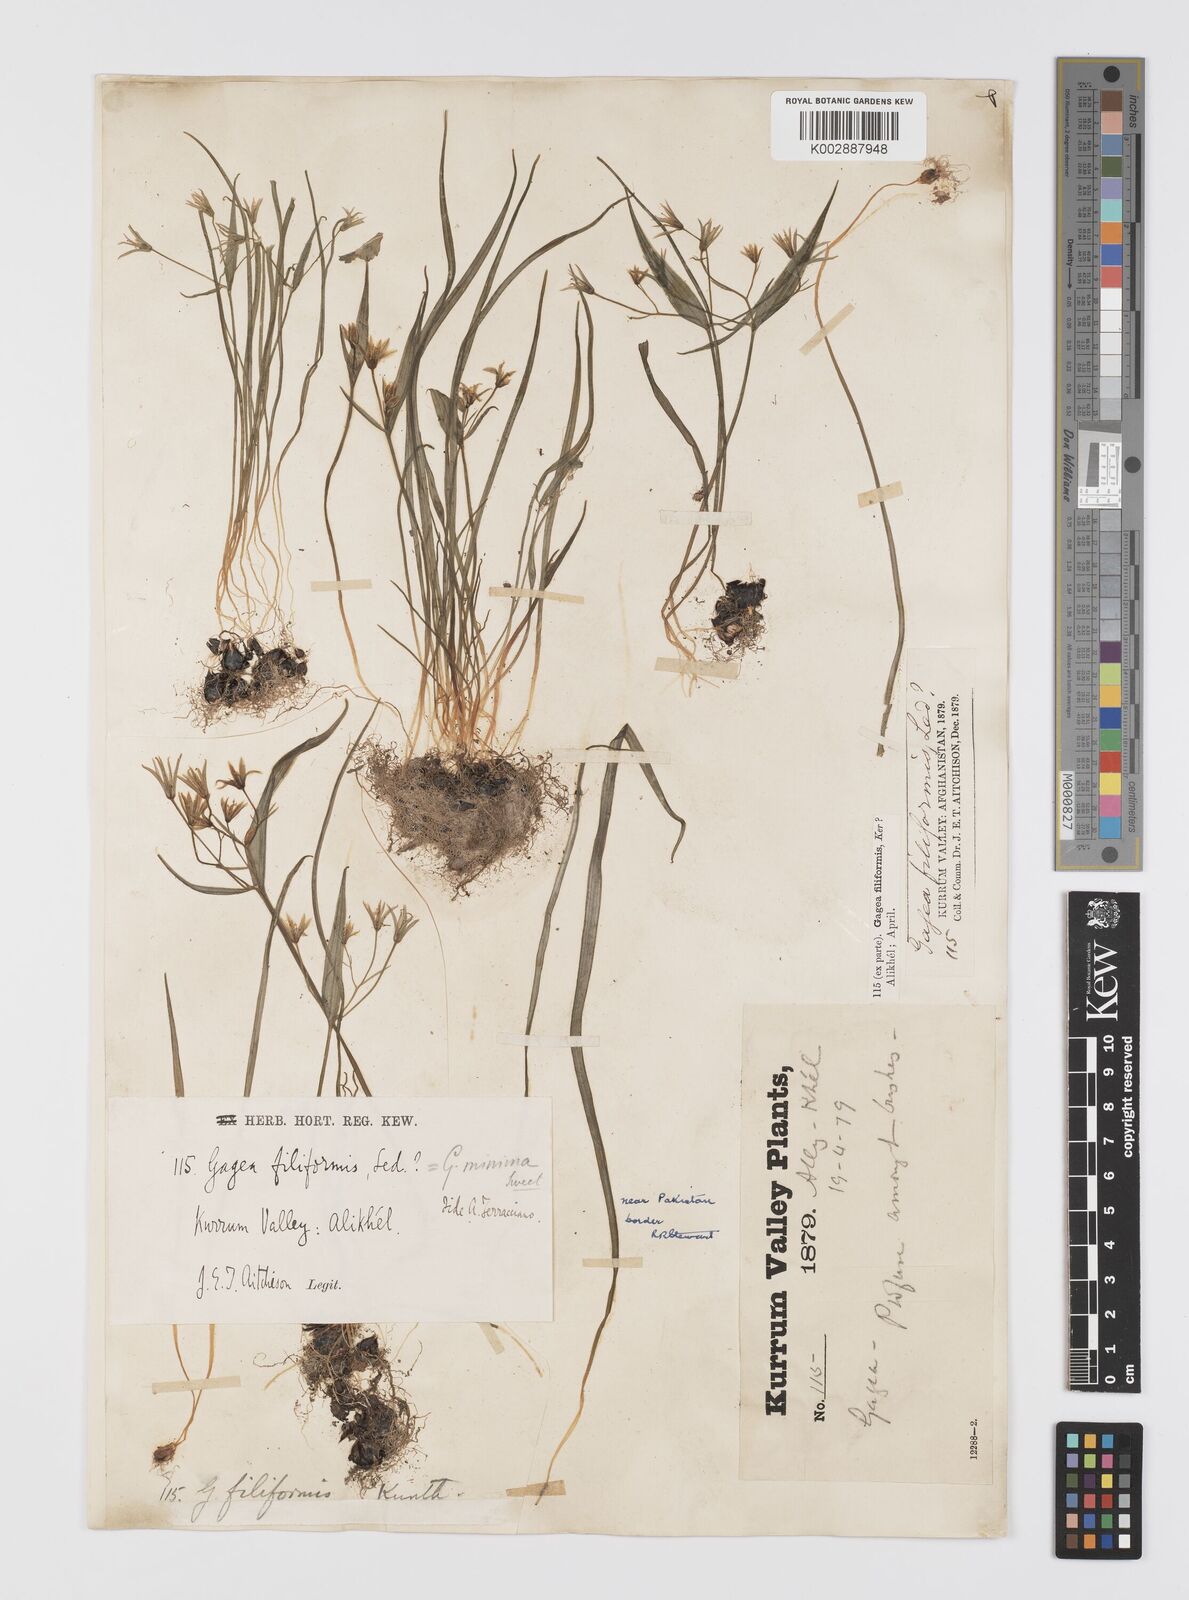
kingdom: Plantae
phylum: Tracheophyta
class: Liliopsida
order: Liliales
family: Liliaceae
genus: Gagea
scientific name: Gagea filiformis
